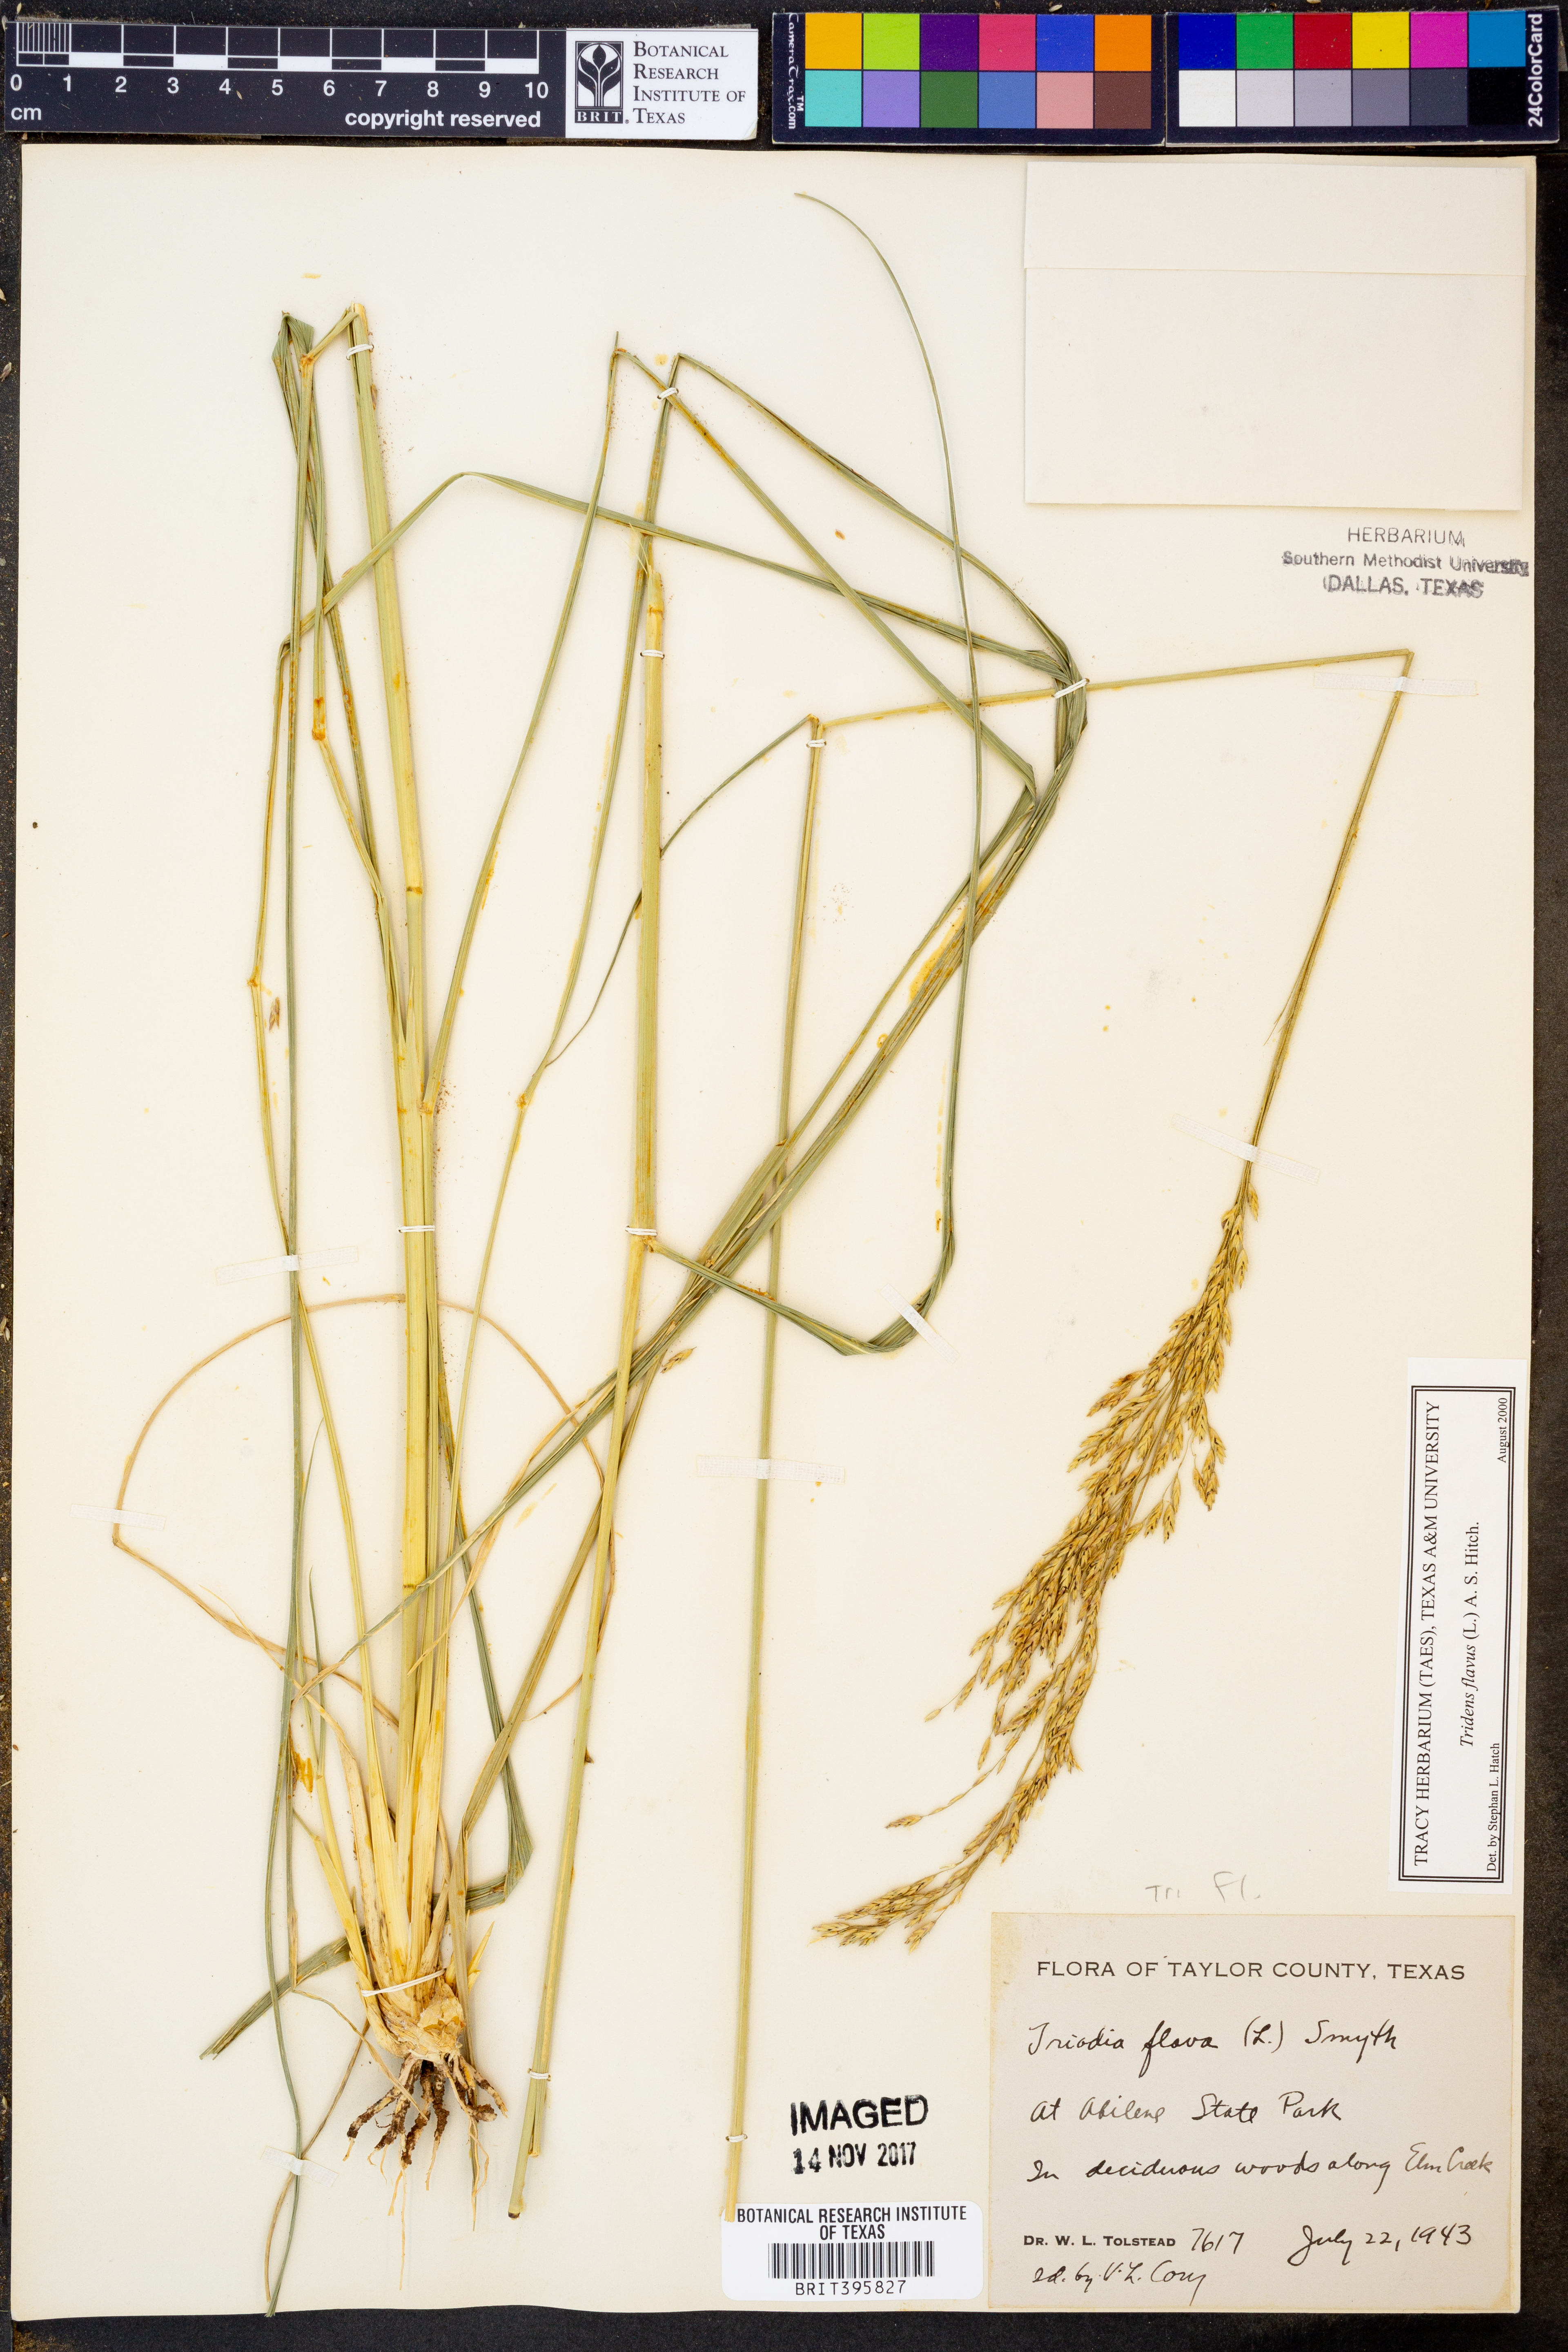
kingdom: Plantae
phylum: Tracheophyta
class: Liliopsida
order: Poales
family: Poaceae
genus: Tridens
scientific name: Tridens flavus
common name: Purpletop
